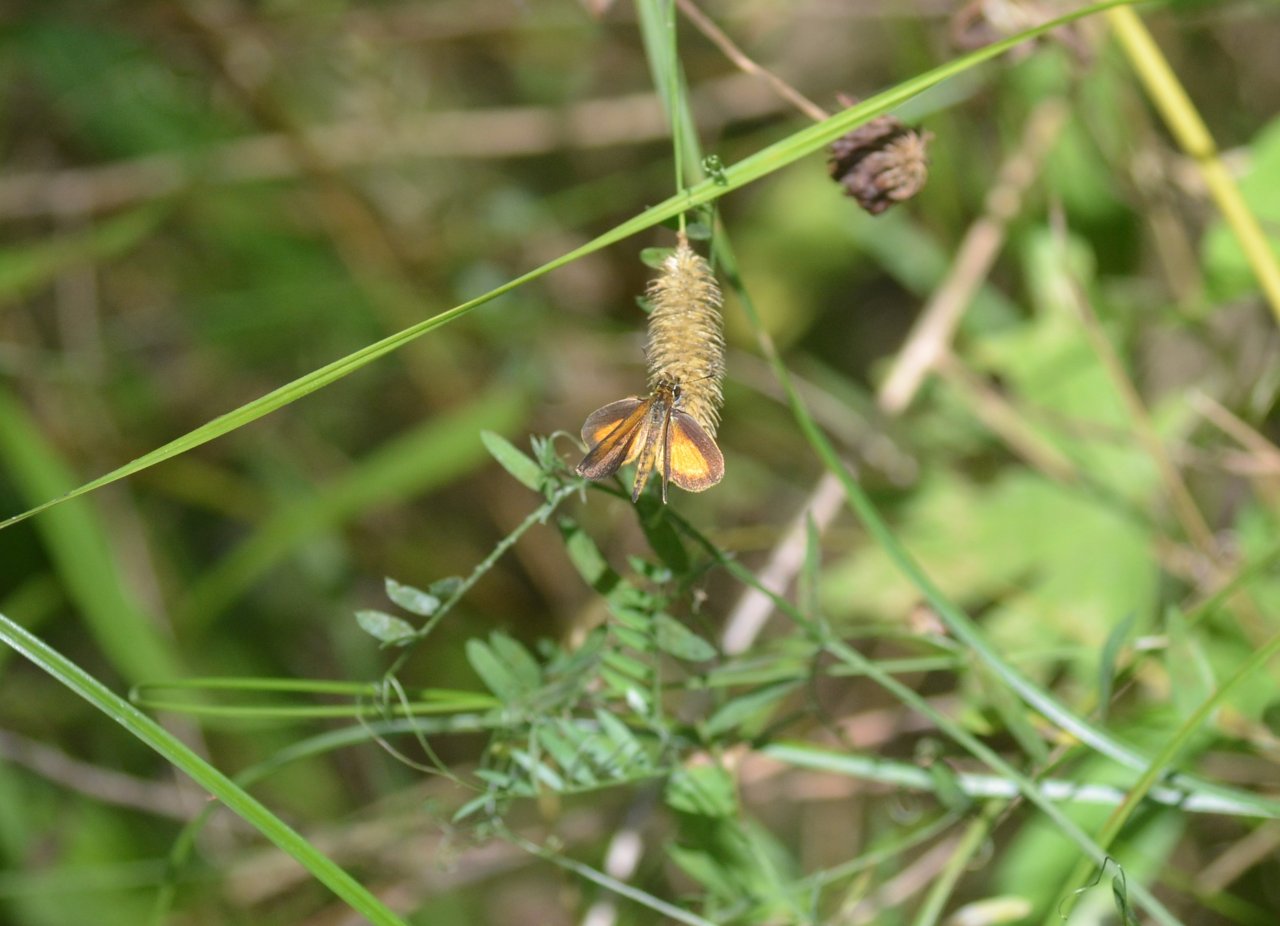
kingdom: Animalia
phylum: Arthropoda
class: Insecta
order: Lepidoptera
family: Hesperiidae
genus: Ancyloxypha
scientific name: Ancyloxypha numitor
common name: Least Skipper
